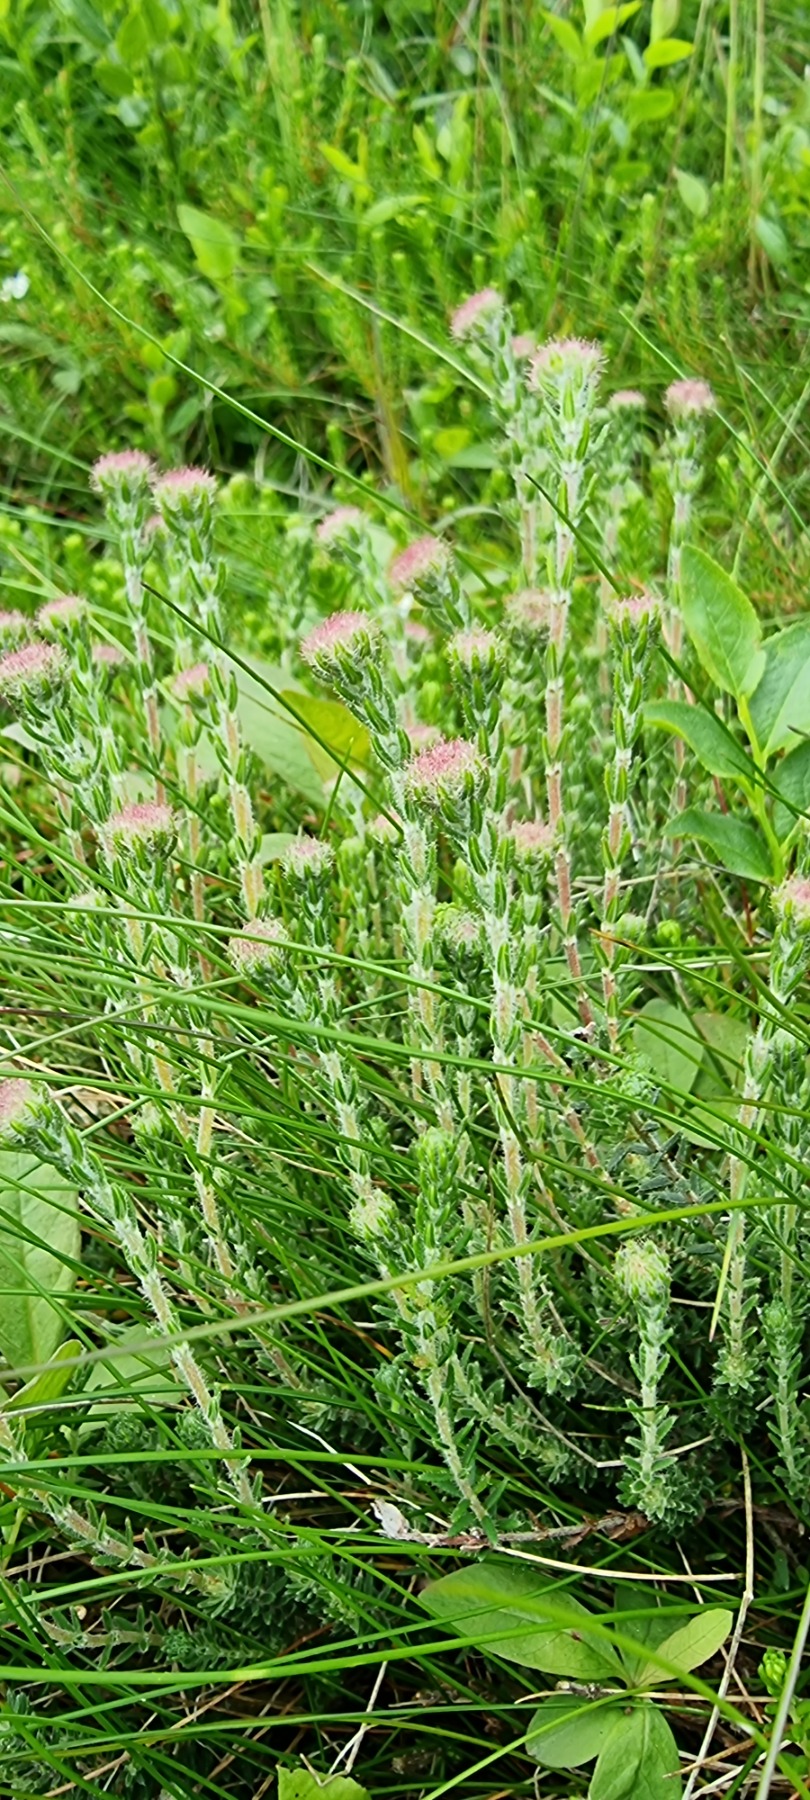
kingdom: Plantae
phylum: Tracheophyta
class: Magnoliopsida
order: Ericales
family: Ericaceae
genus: Erica
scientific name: Erica tetralix
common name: Klokkelyng
